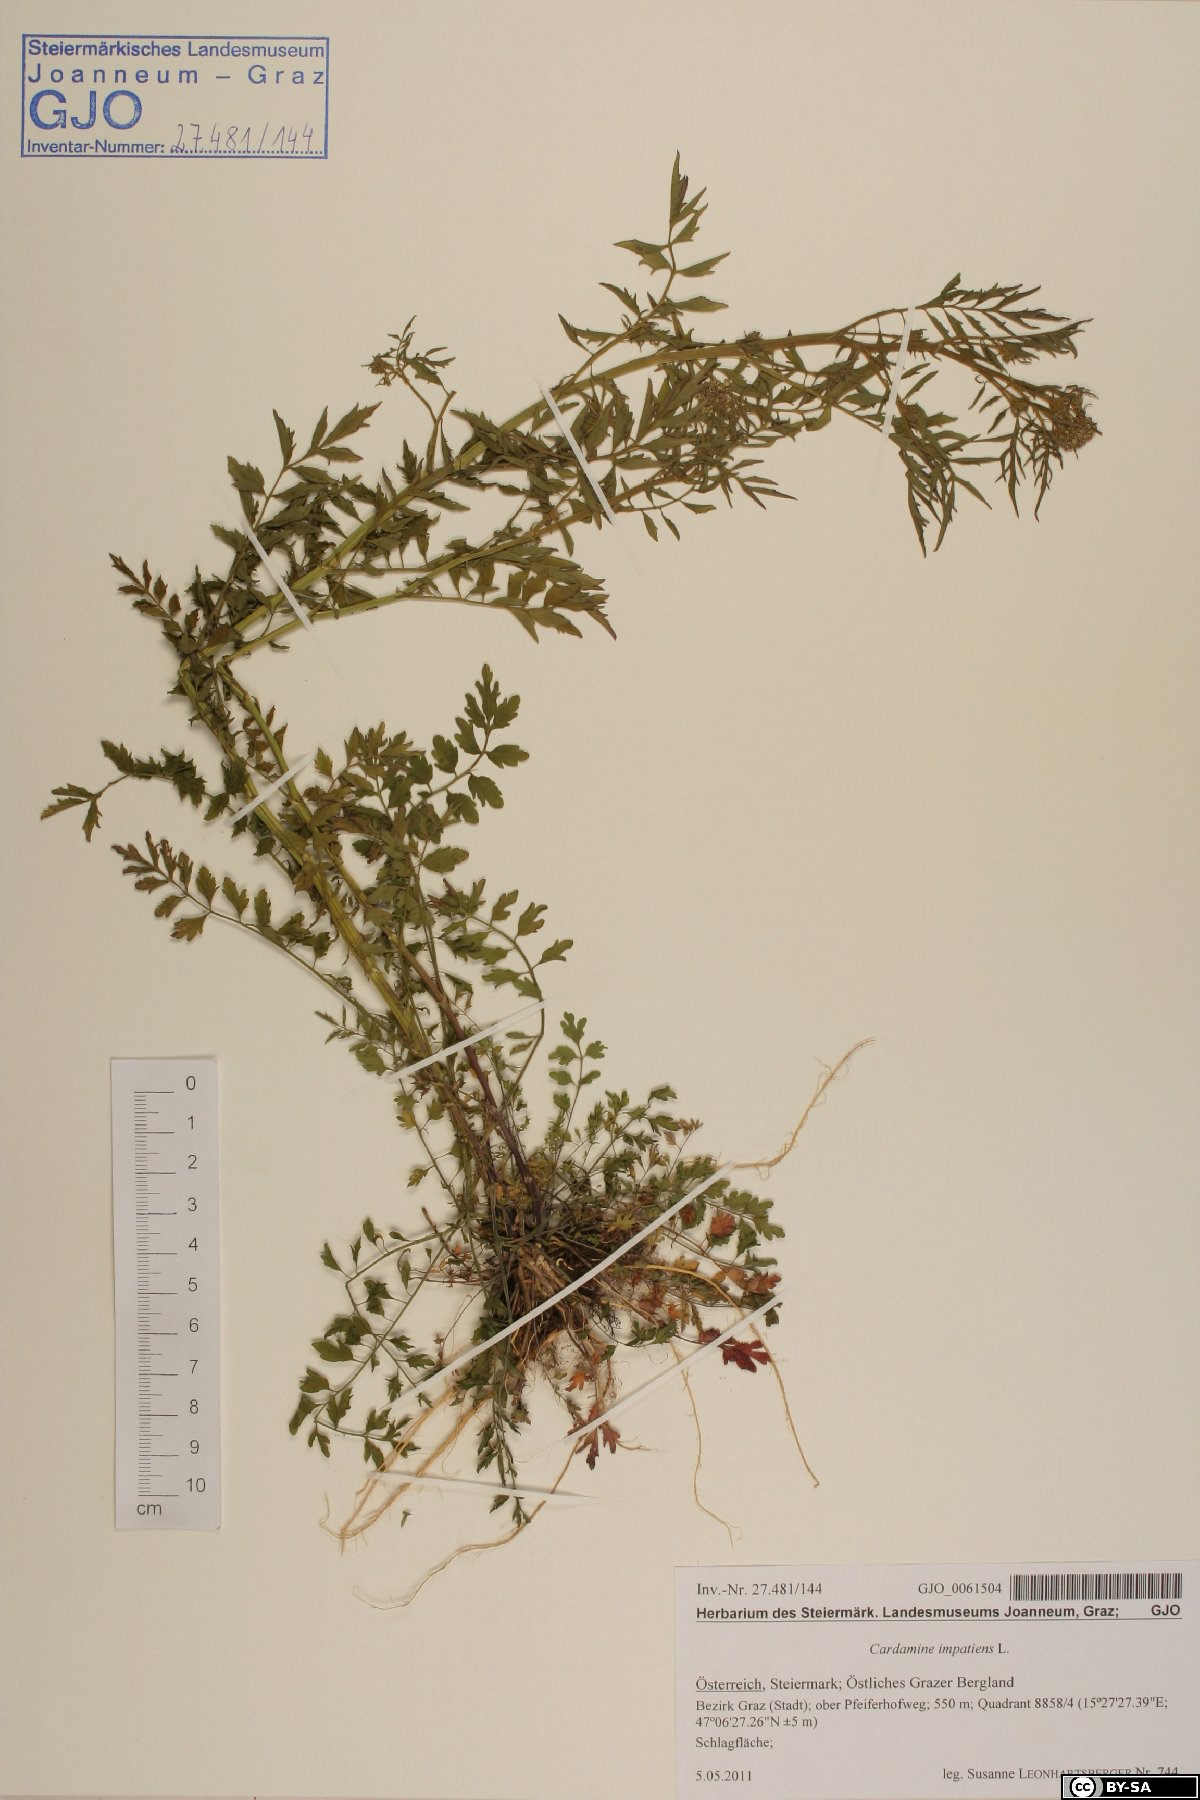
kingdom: Plantae
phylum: Tracheophyta
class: Magnoliopsida
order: Brassicales
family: Brassicaceae
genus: Cardamine
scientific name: Cardamine impatiens
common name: Narrow-leaved bitter-cress
